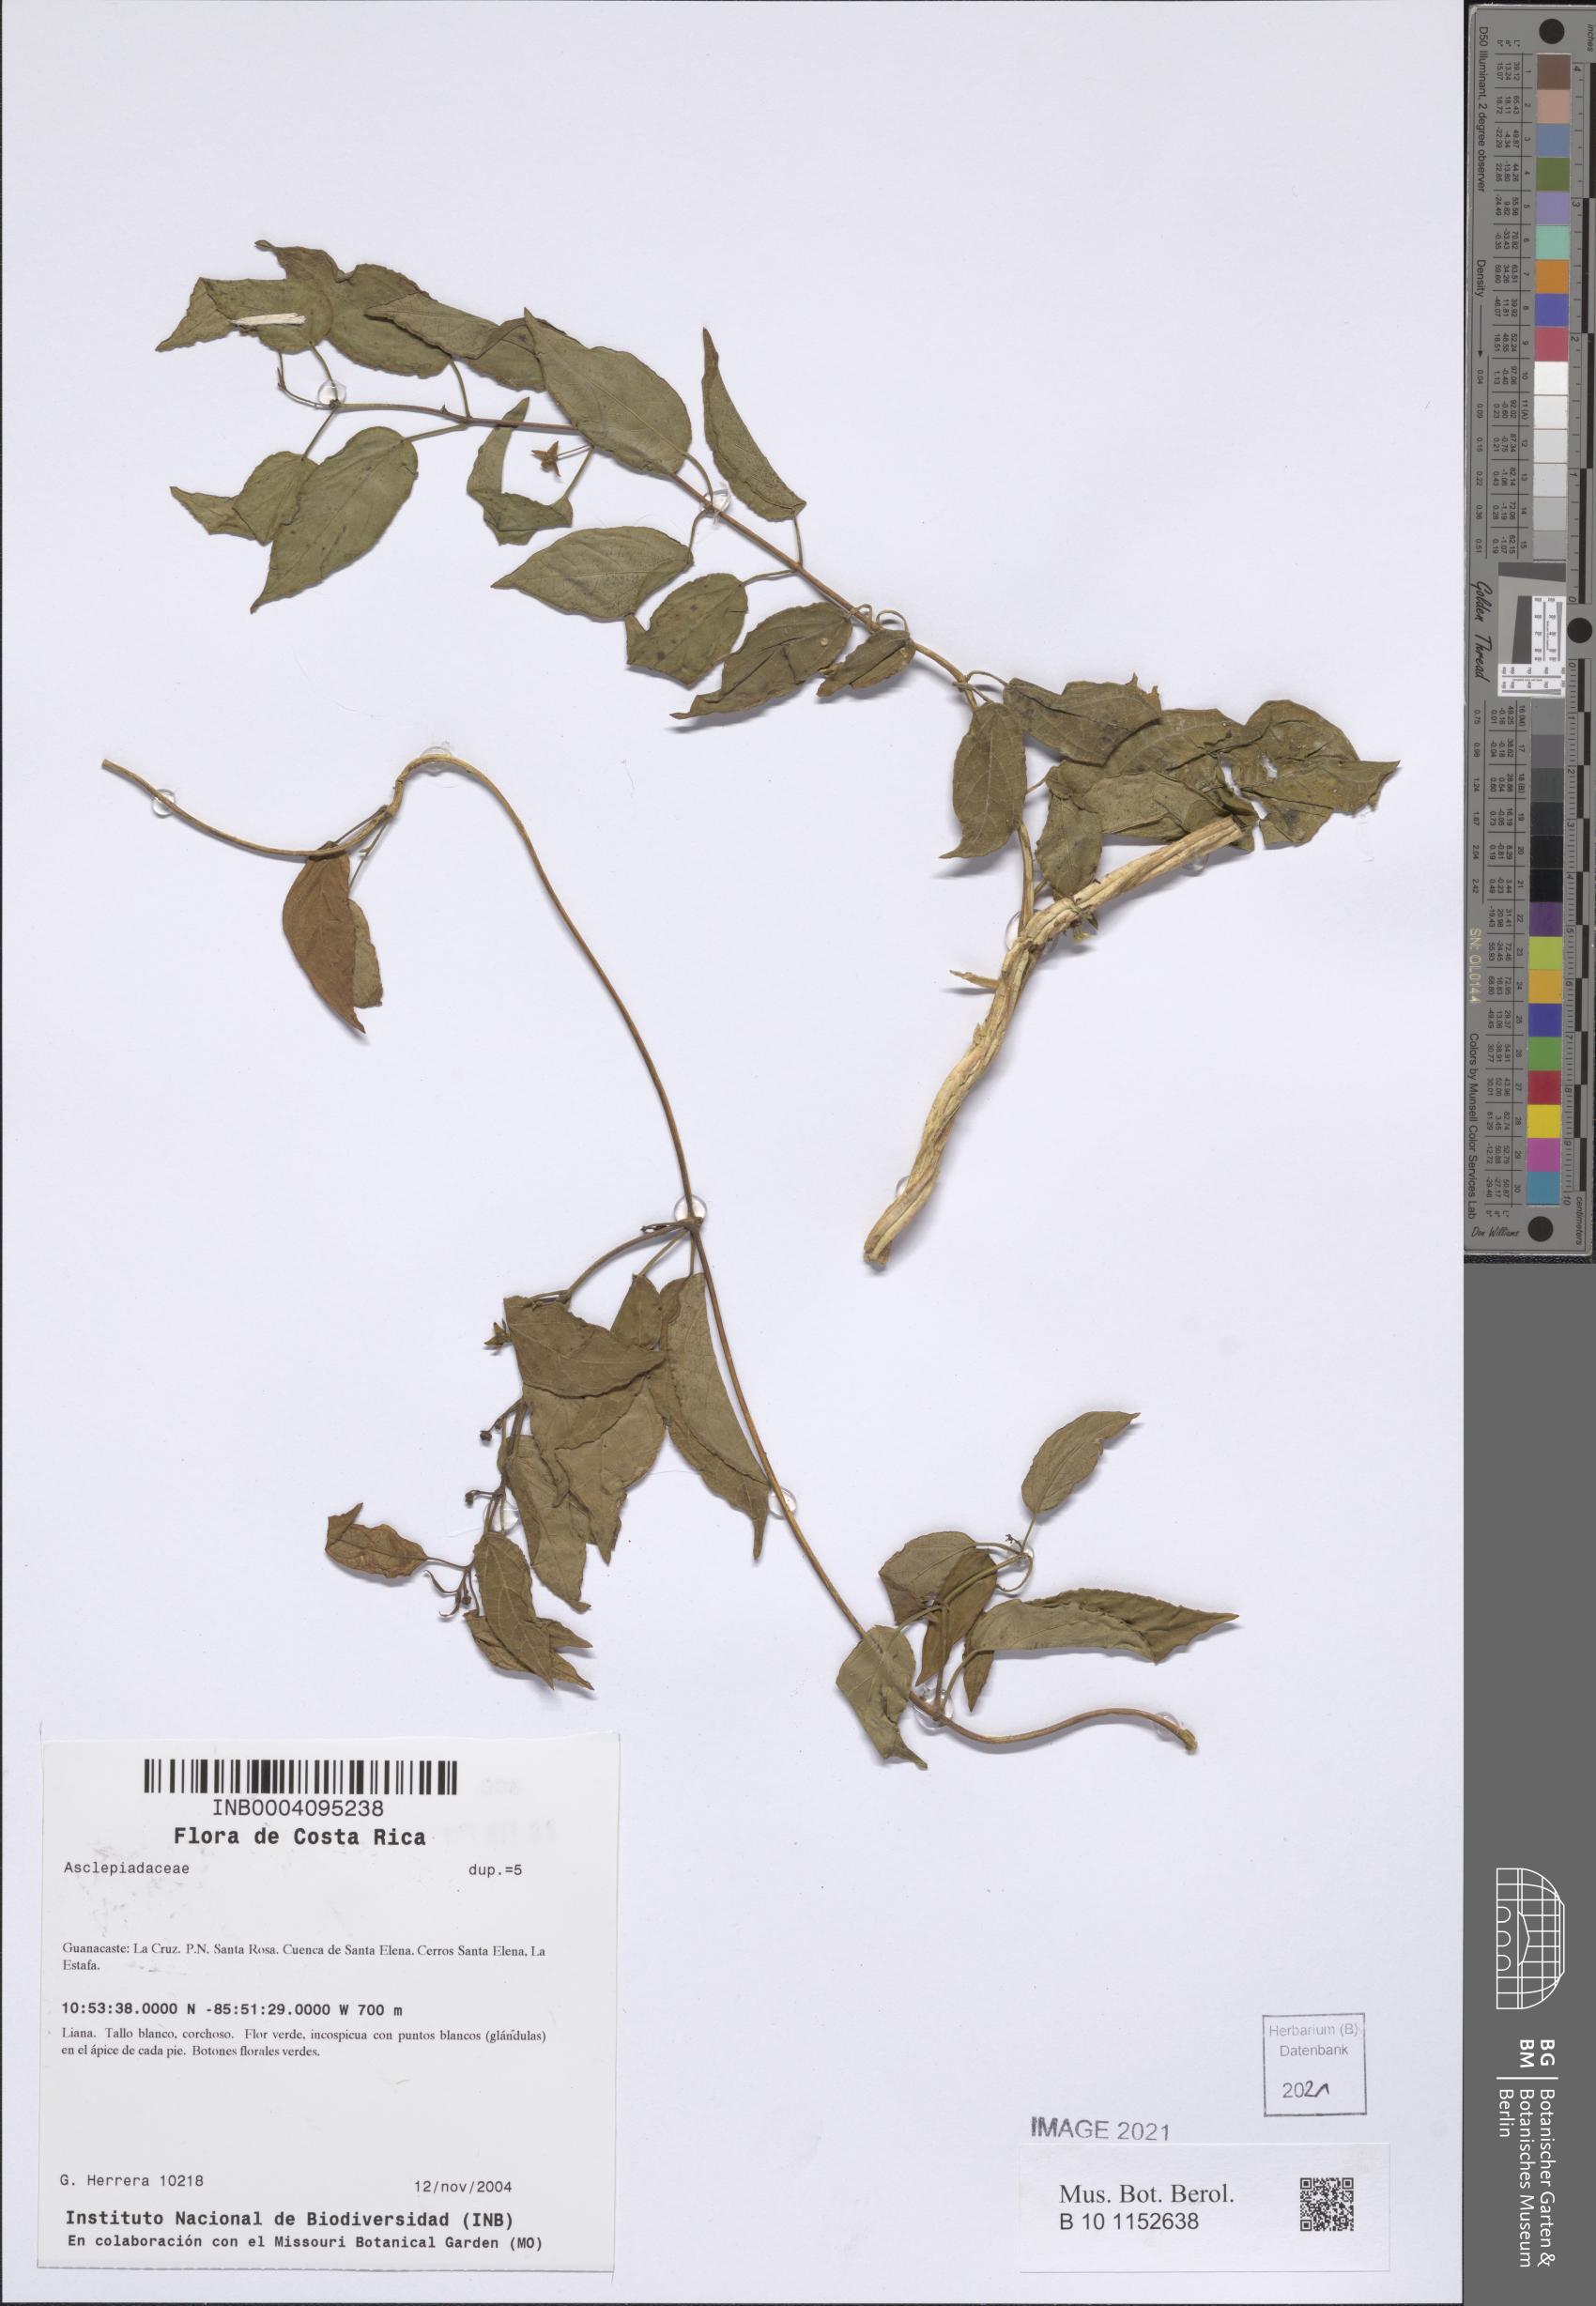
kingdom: Plantae
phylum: Tracheophyta
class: Magnoliopsida
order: Gentianales
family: Apocynaceae
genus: Matelea
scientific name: Matelea pusilliflora
